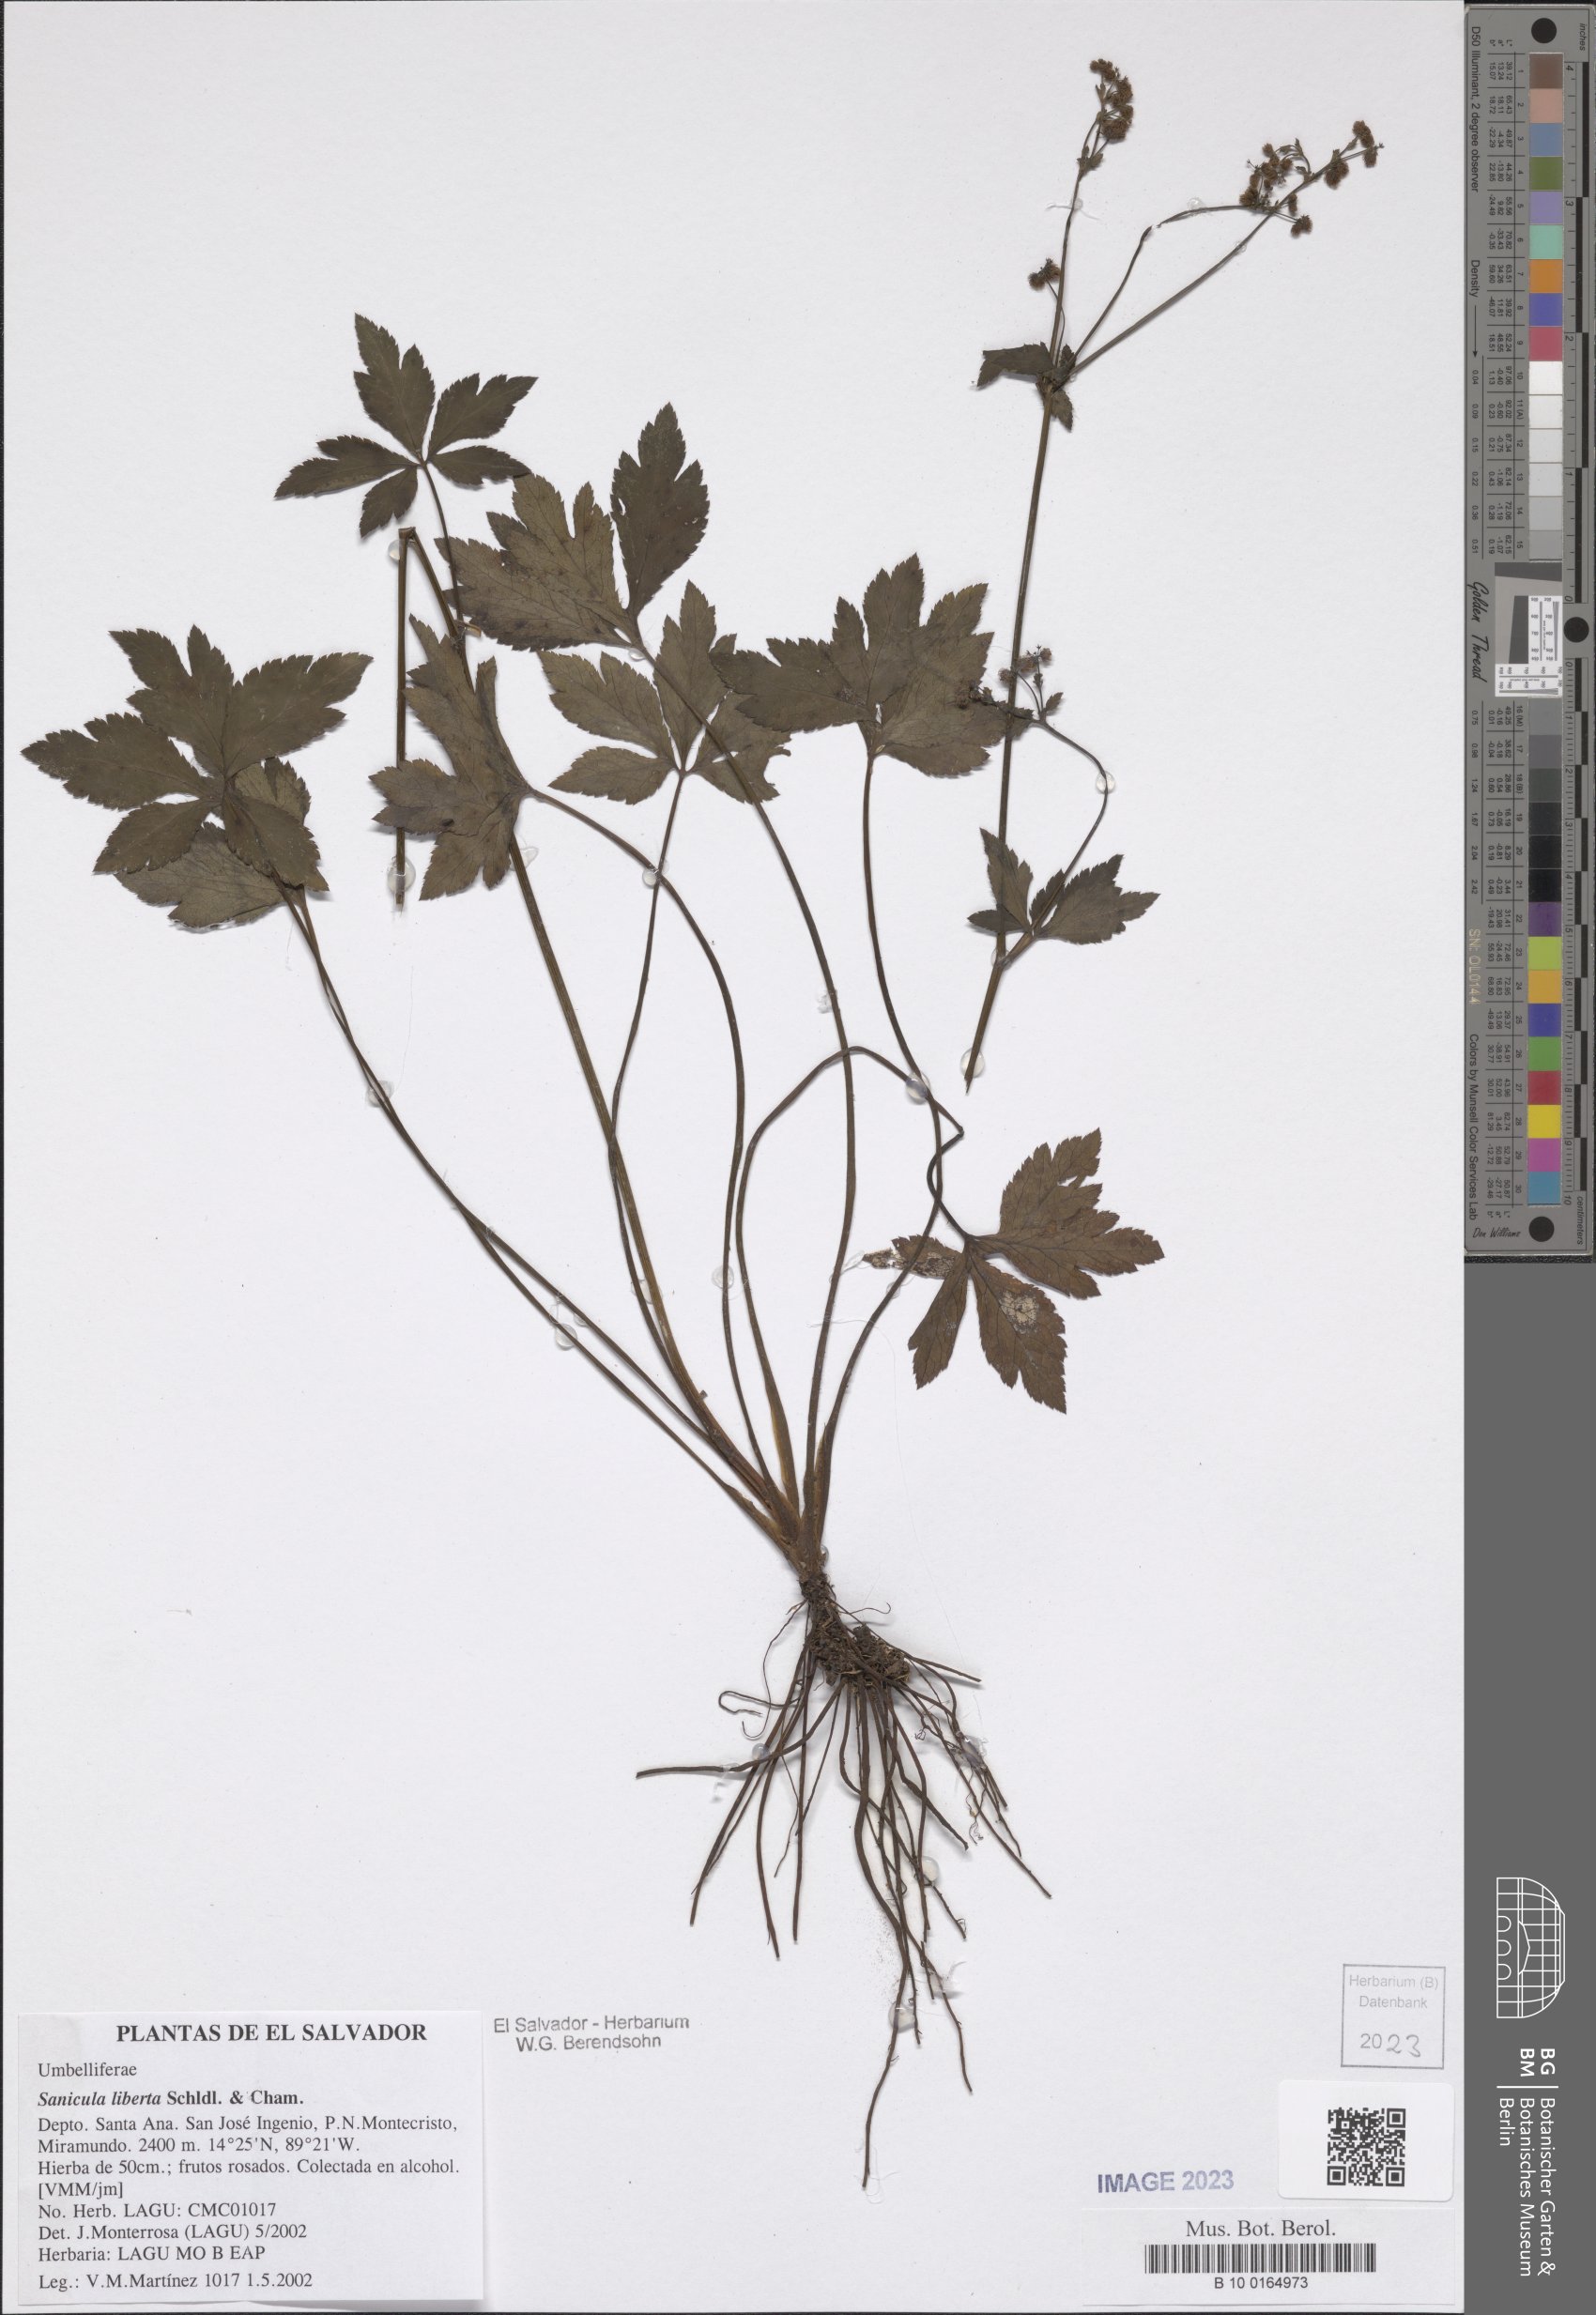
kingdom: Plantae
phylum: Tracheophyta
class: Magnoliopsida
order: Apiales
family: Apiaceae
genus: Sanicula
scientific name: Sanicula liberta
